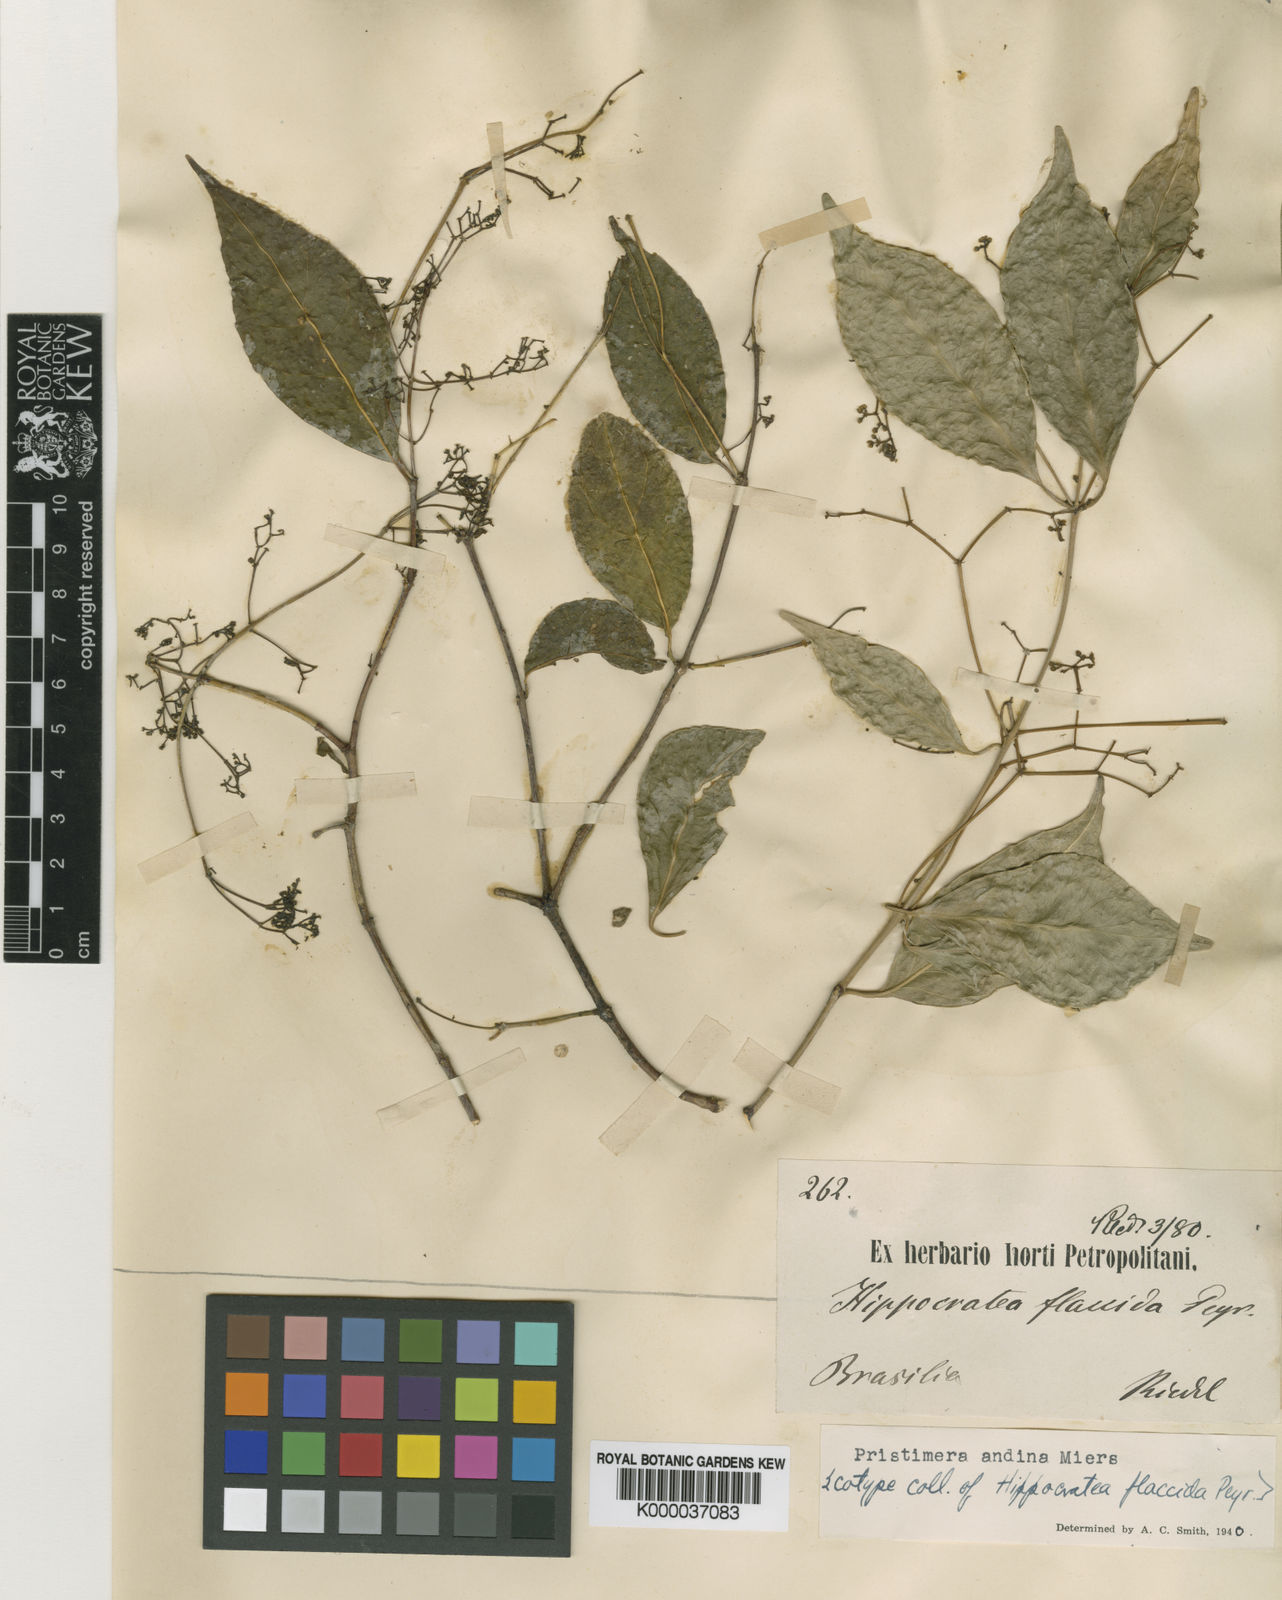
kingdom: Plantae
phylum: Tracheophyta
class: Magnoliopsida
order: Celastrales
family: Celastraceae
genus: Pristimera
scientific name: Pristimera celastroides
